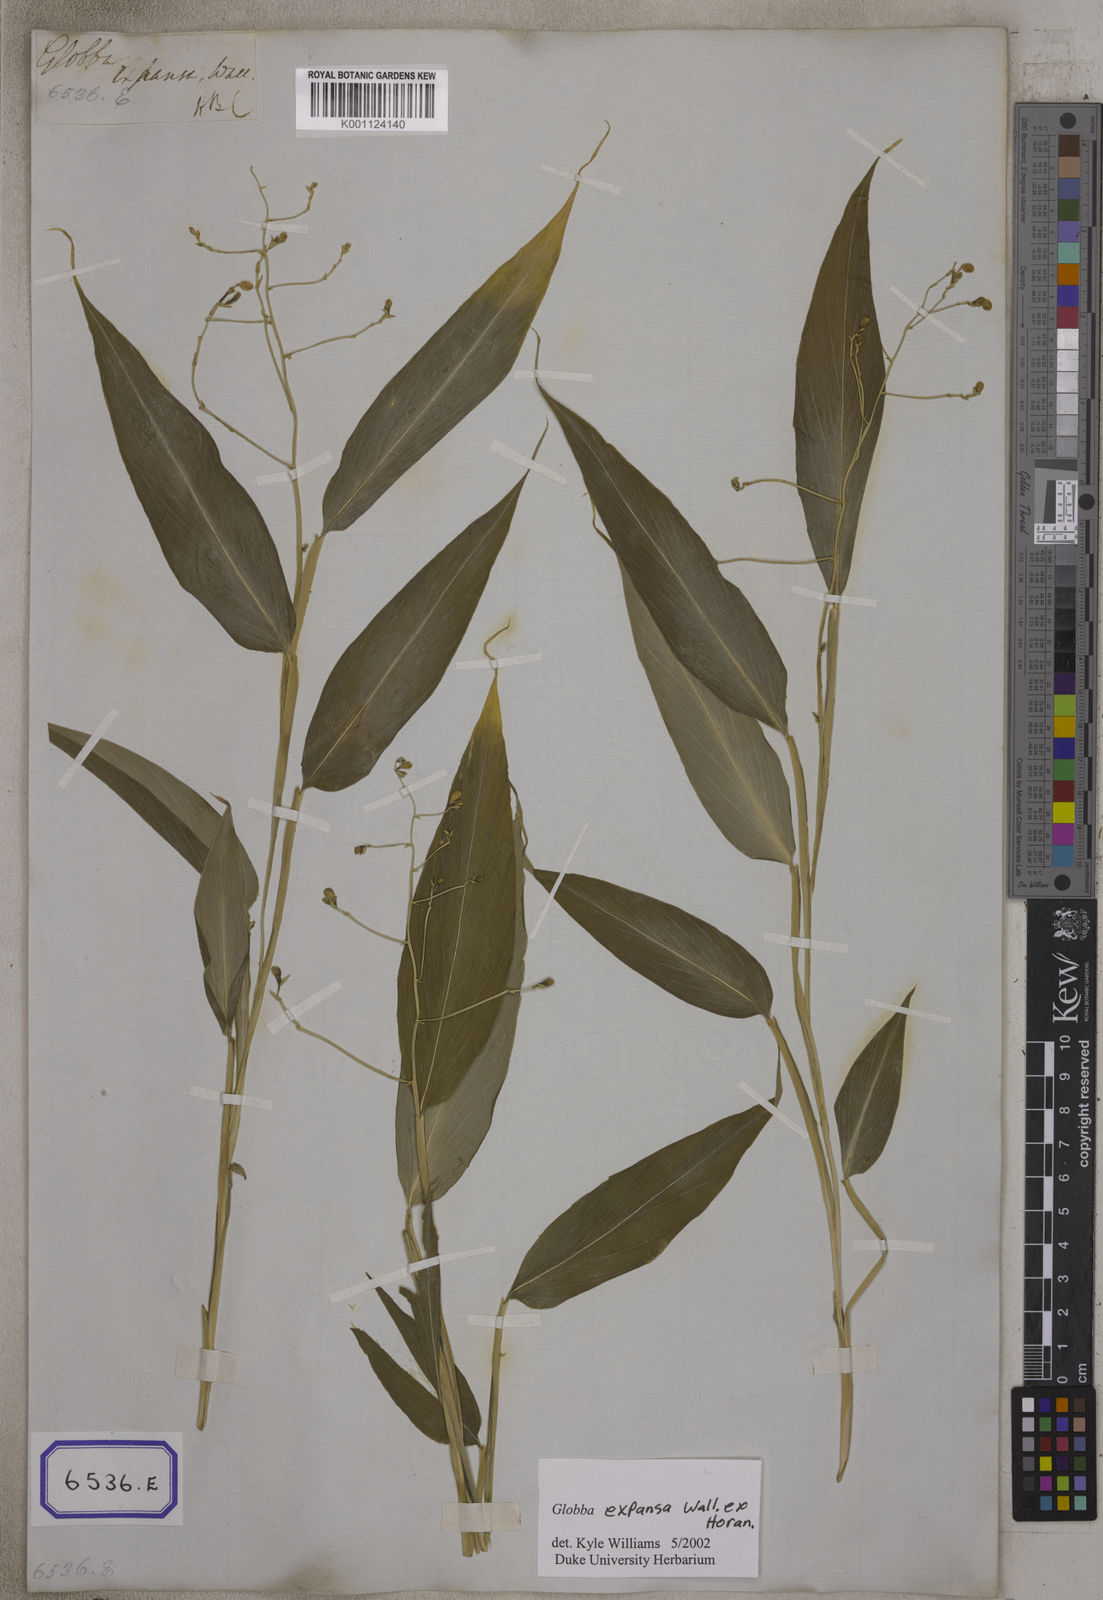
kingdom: Plantae
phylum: Tracheophyta
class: Liliopsida
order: Zingiberales
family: Zingiberaceae
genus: Globba
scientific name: Globba
